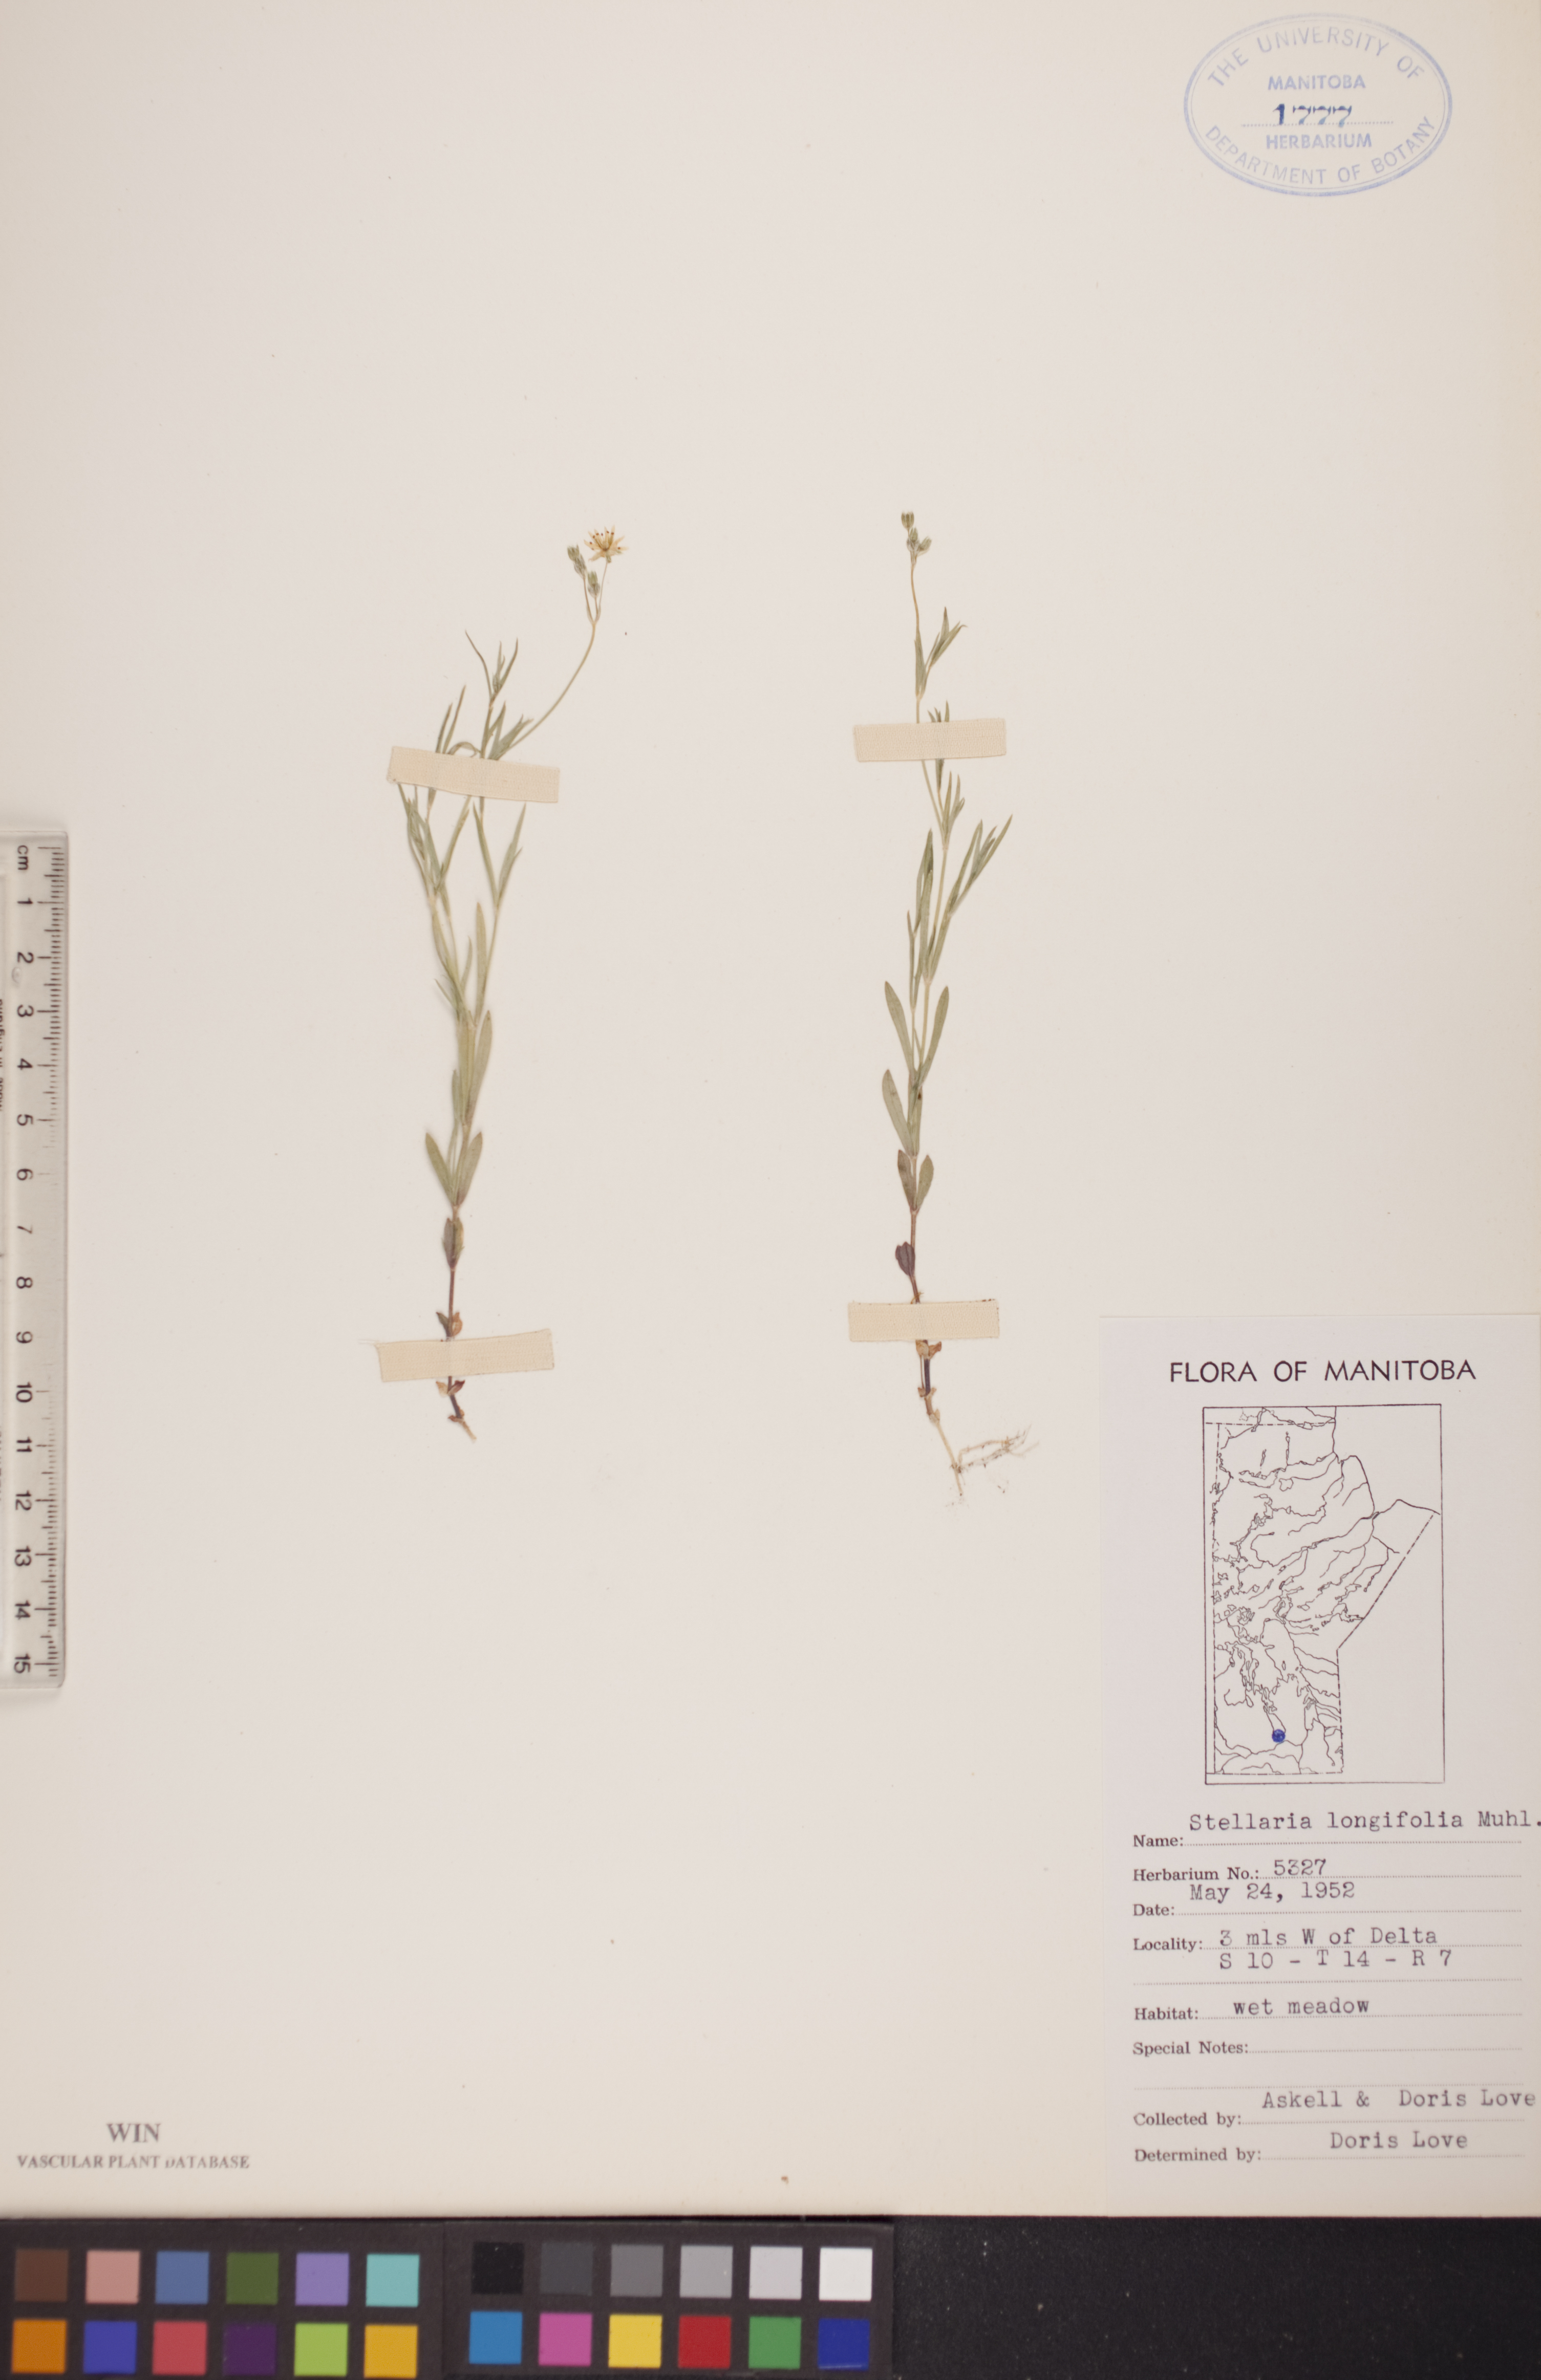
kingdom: Plantae
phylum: Tracheophyta
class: Magnoliopsida
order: Caryophyllales
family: Caryophyllaceae
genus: Stellaria
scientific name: Stellaria longifolia
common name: Long-leaved chickweed
